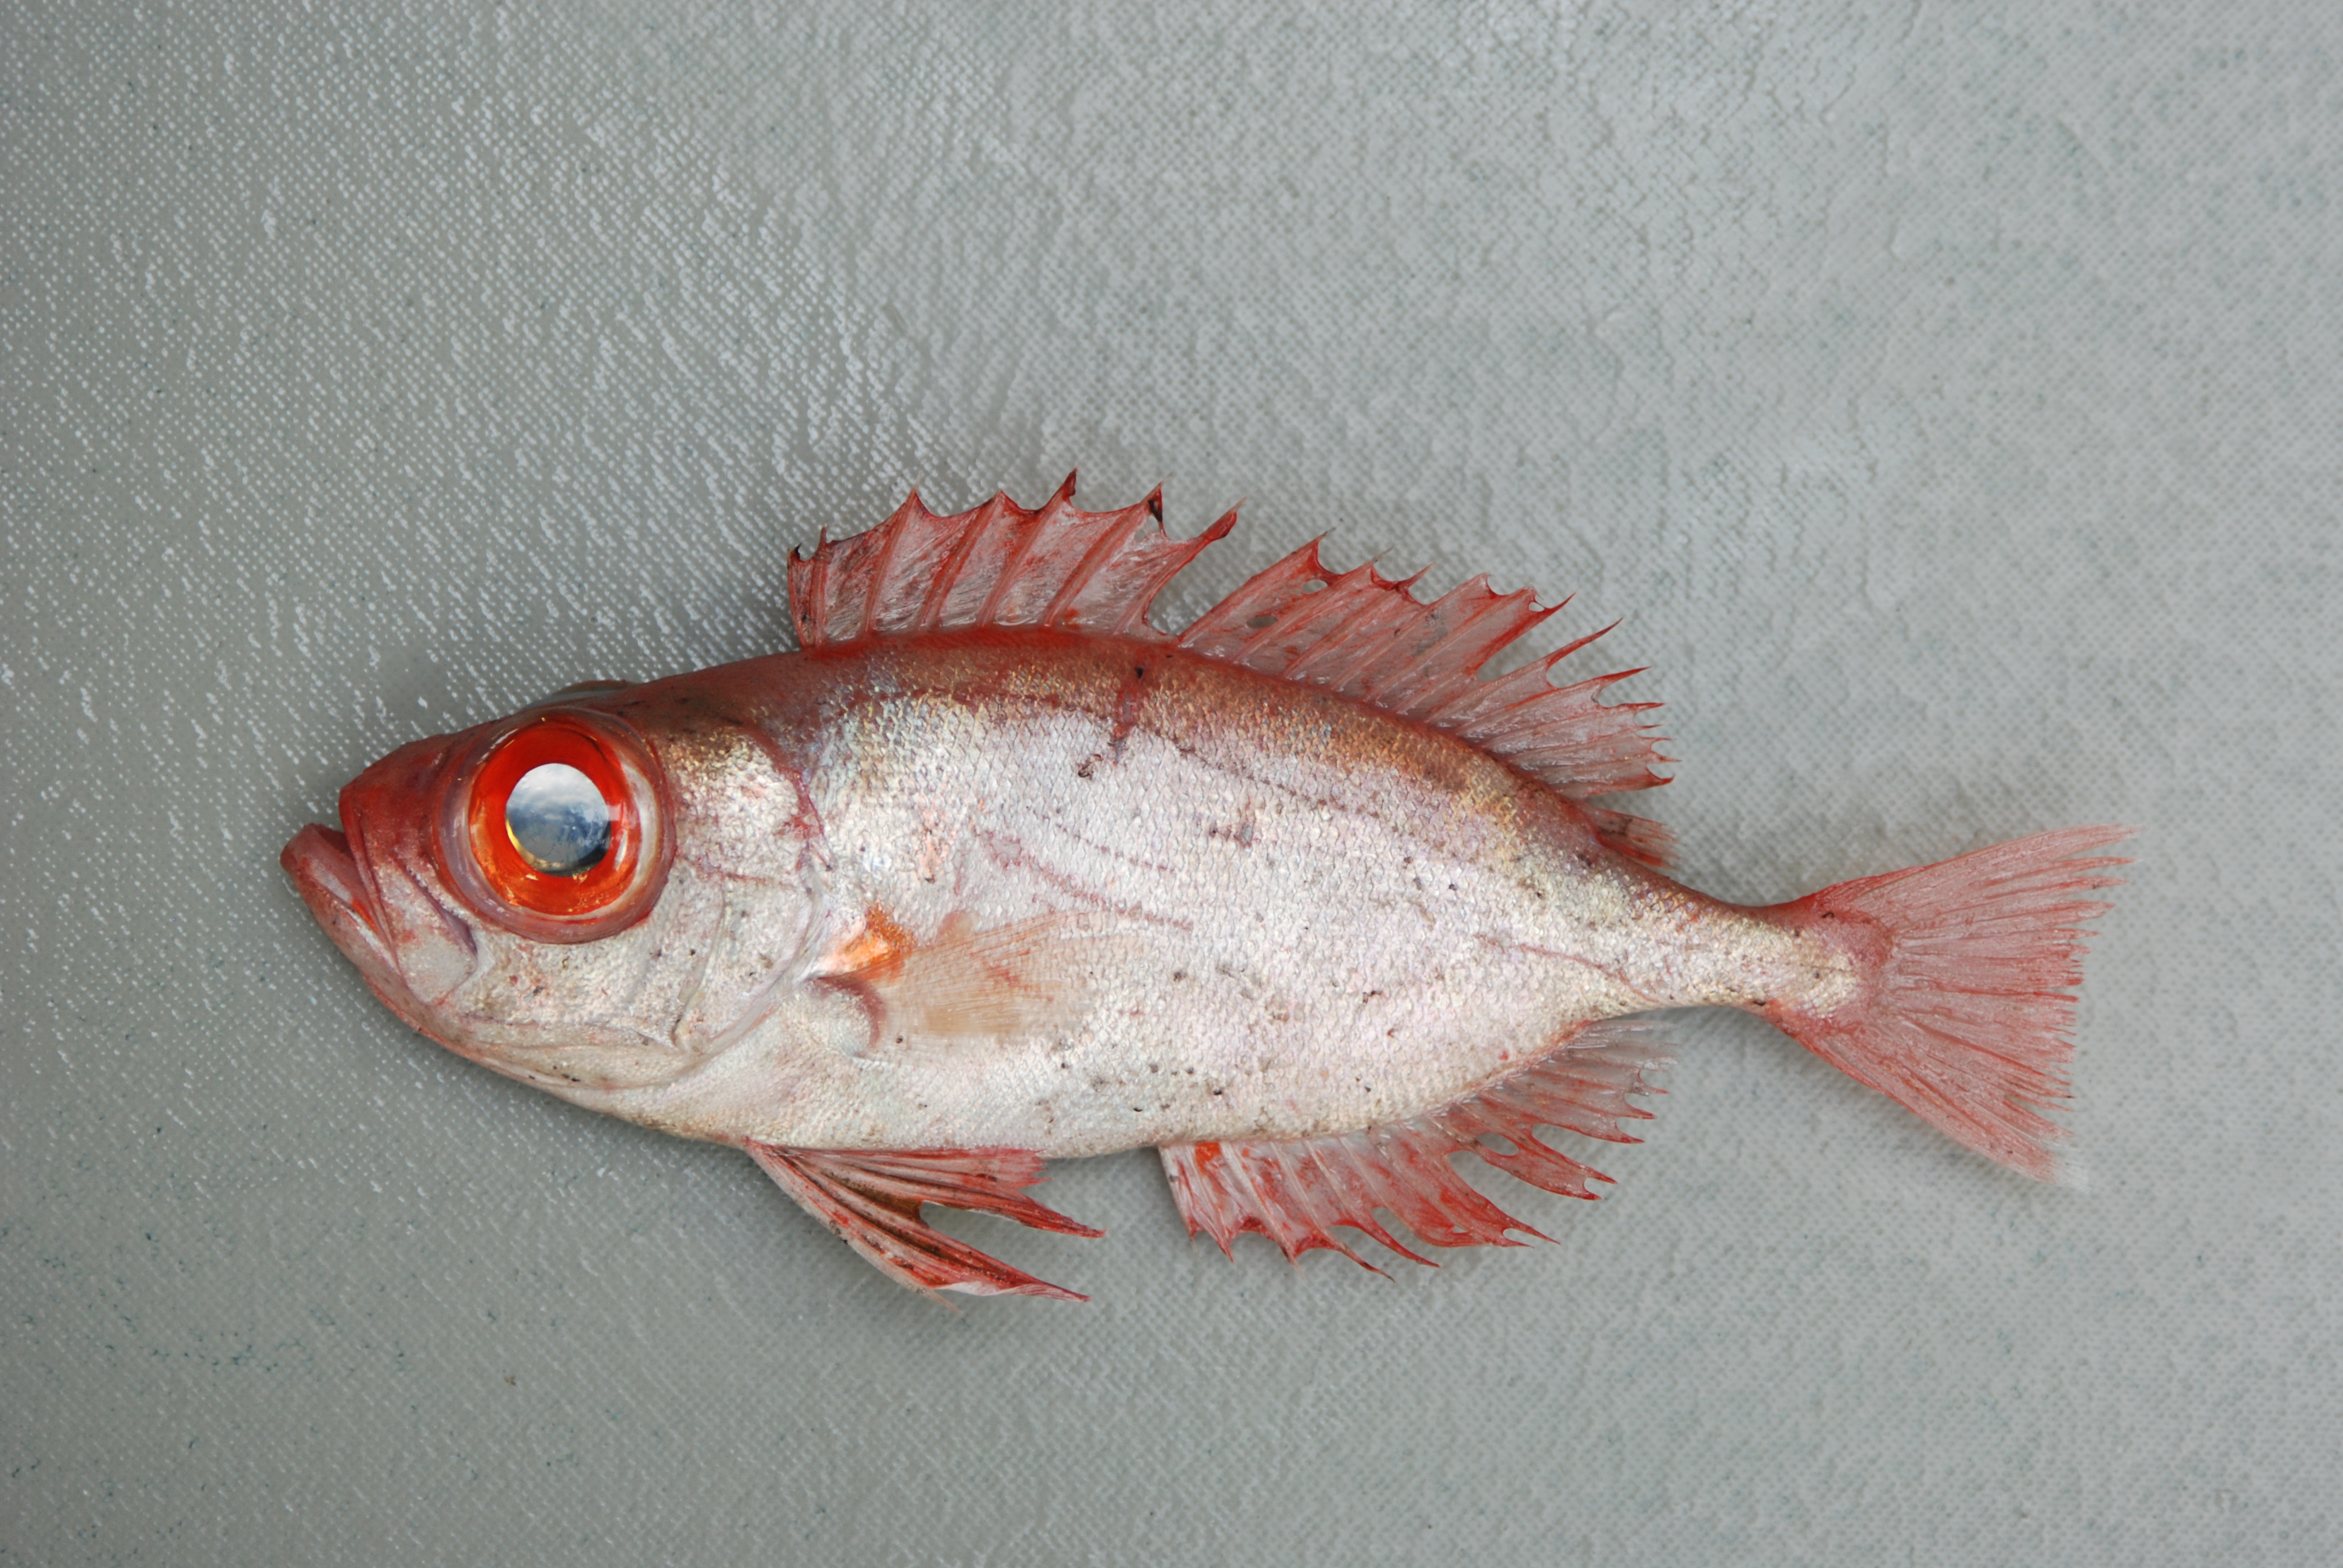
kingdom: Animalia
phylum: Chordata
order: Perciformes
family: Priacanthidae
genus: Priacanthus
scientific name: Priacanthus hamrur
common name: Moontail bullseye
